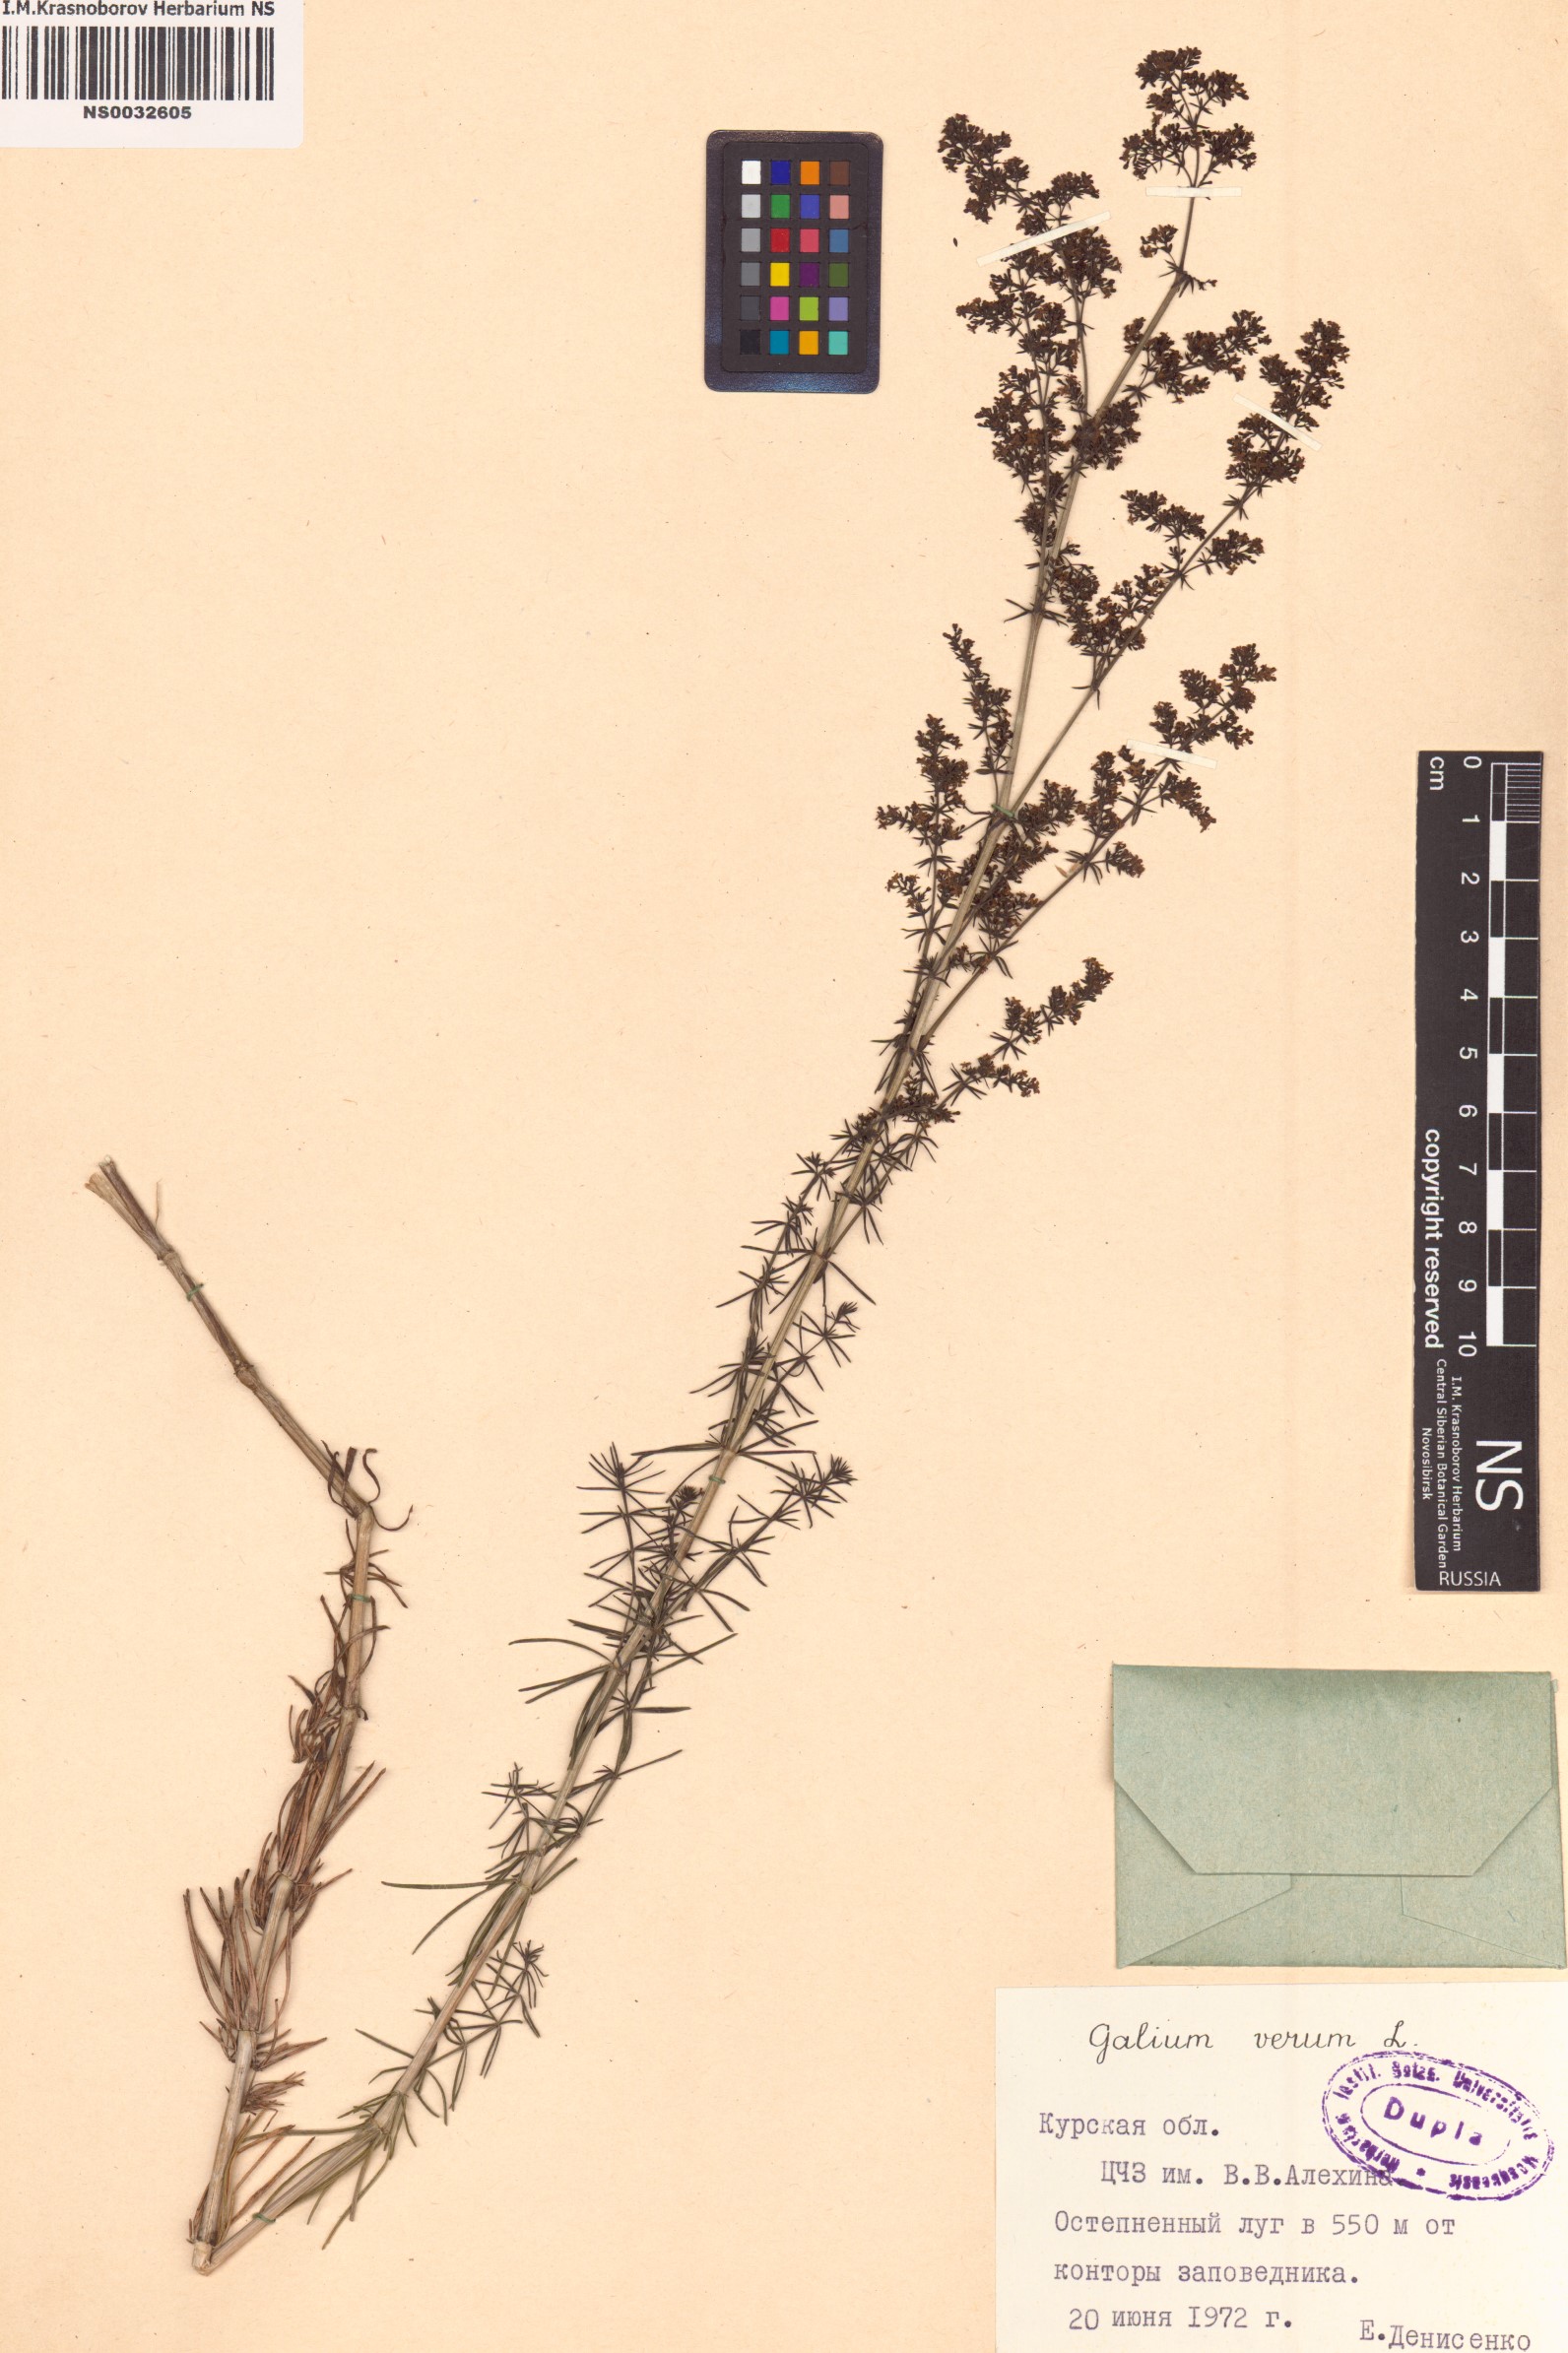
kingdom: Plantae
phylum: Tracheophyta
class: Magnoliopsida
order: Gentianales
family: Rubiaceae
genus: Galium
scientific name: Galium verum
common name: Lady's bedstraw
